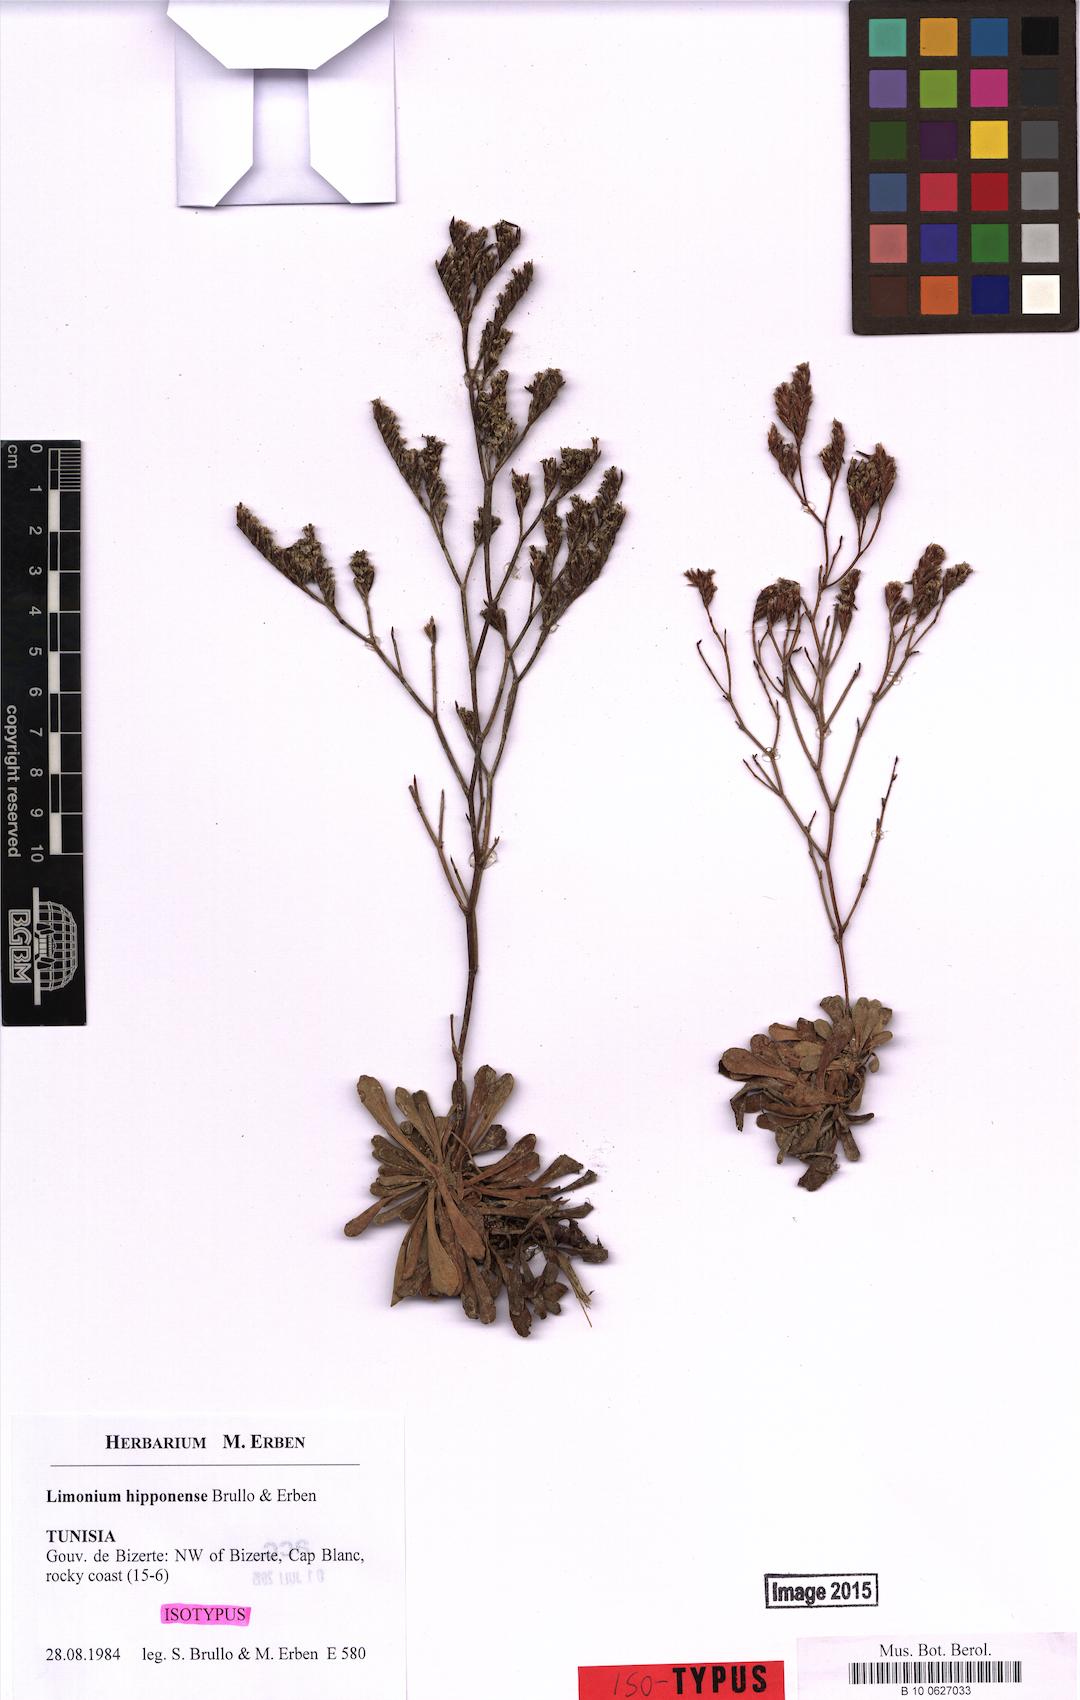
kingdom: Plantae
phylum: Tracheophyta
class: Magnoliopsida
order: Caryophyllales
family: Plumbaginaceae
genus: Limonium
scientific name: Limonium hipponense
